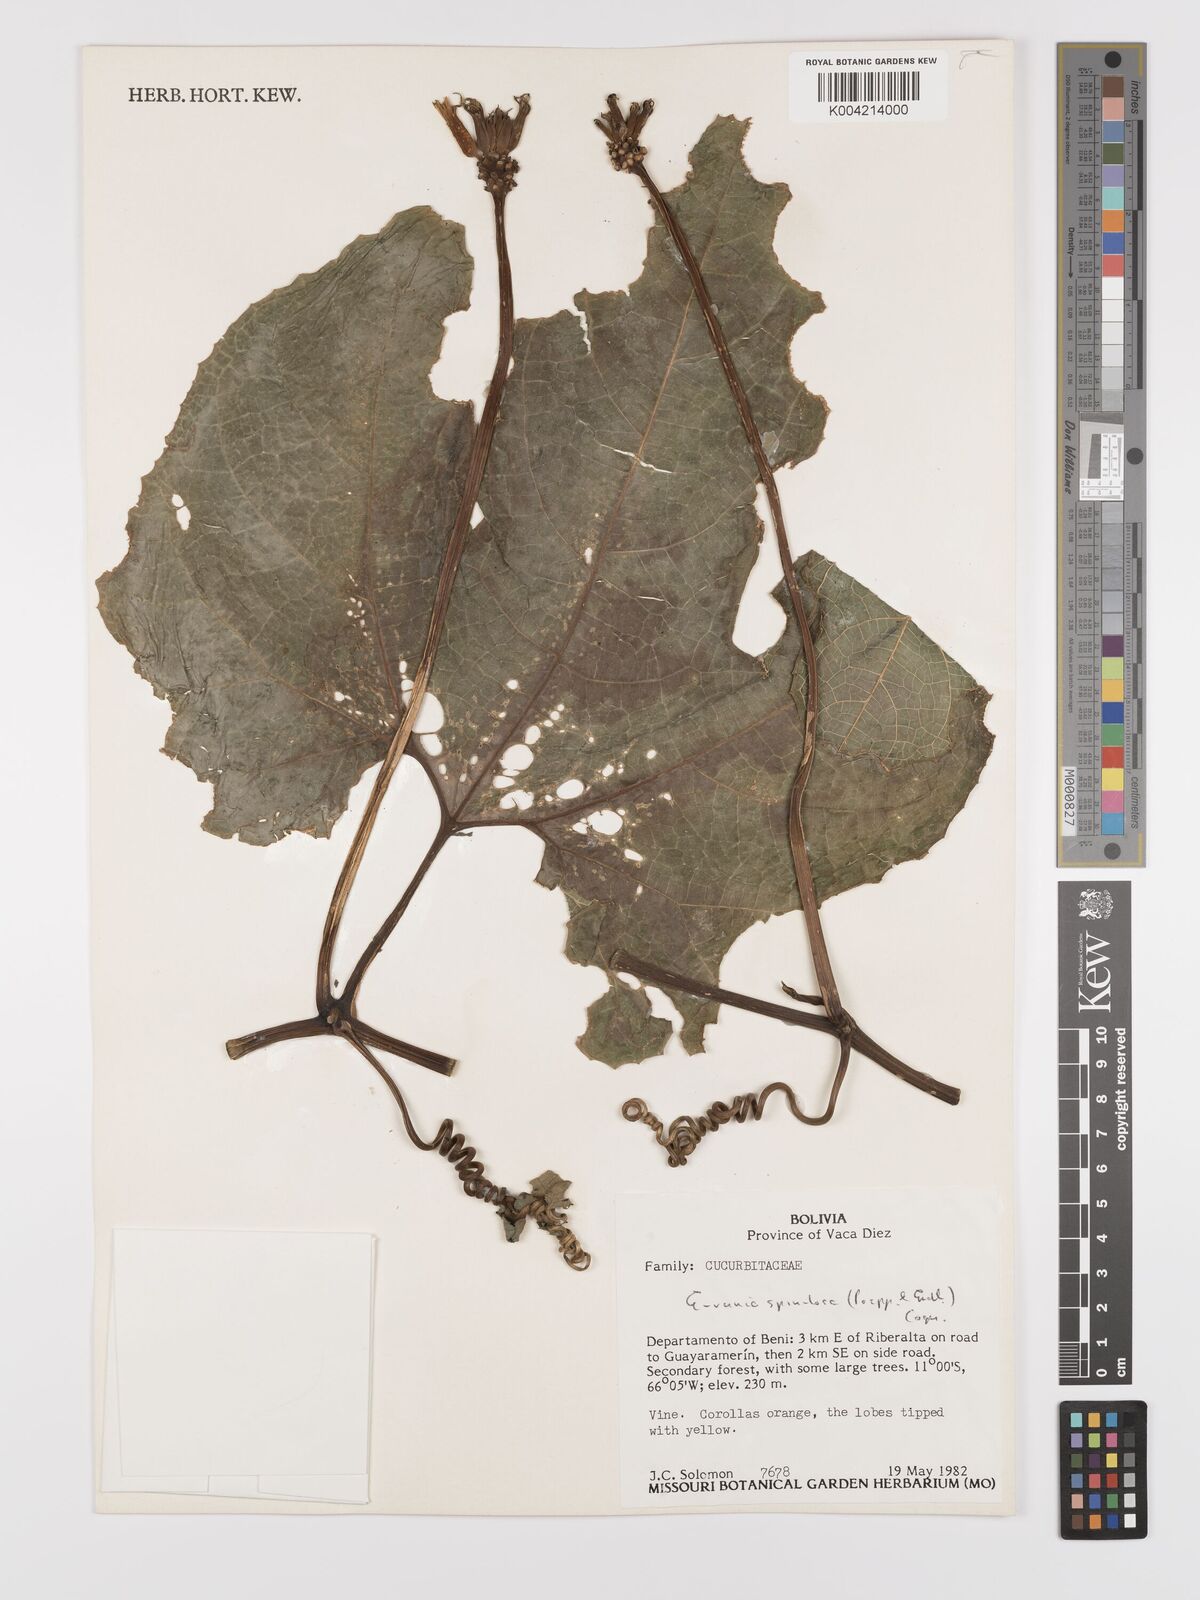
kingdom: Plantae
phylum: Tracheophyta
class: Magnoliopsida
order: Cucurbitales
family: Cucurbitaceae
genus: Gurania
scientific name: Gurania lobata
